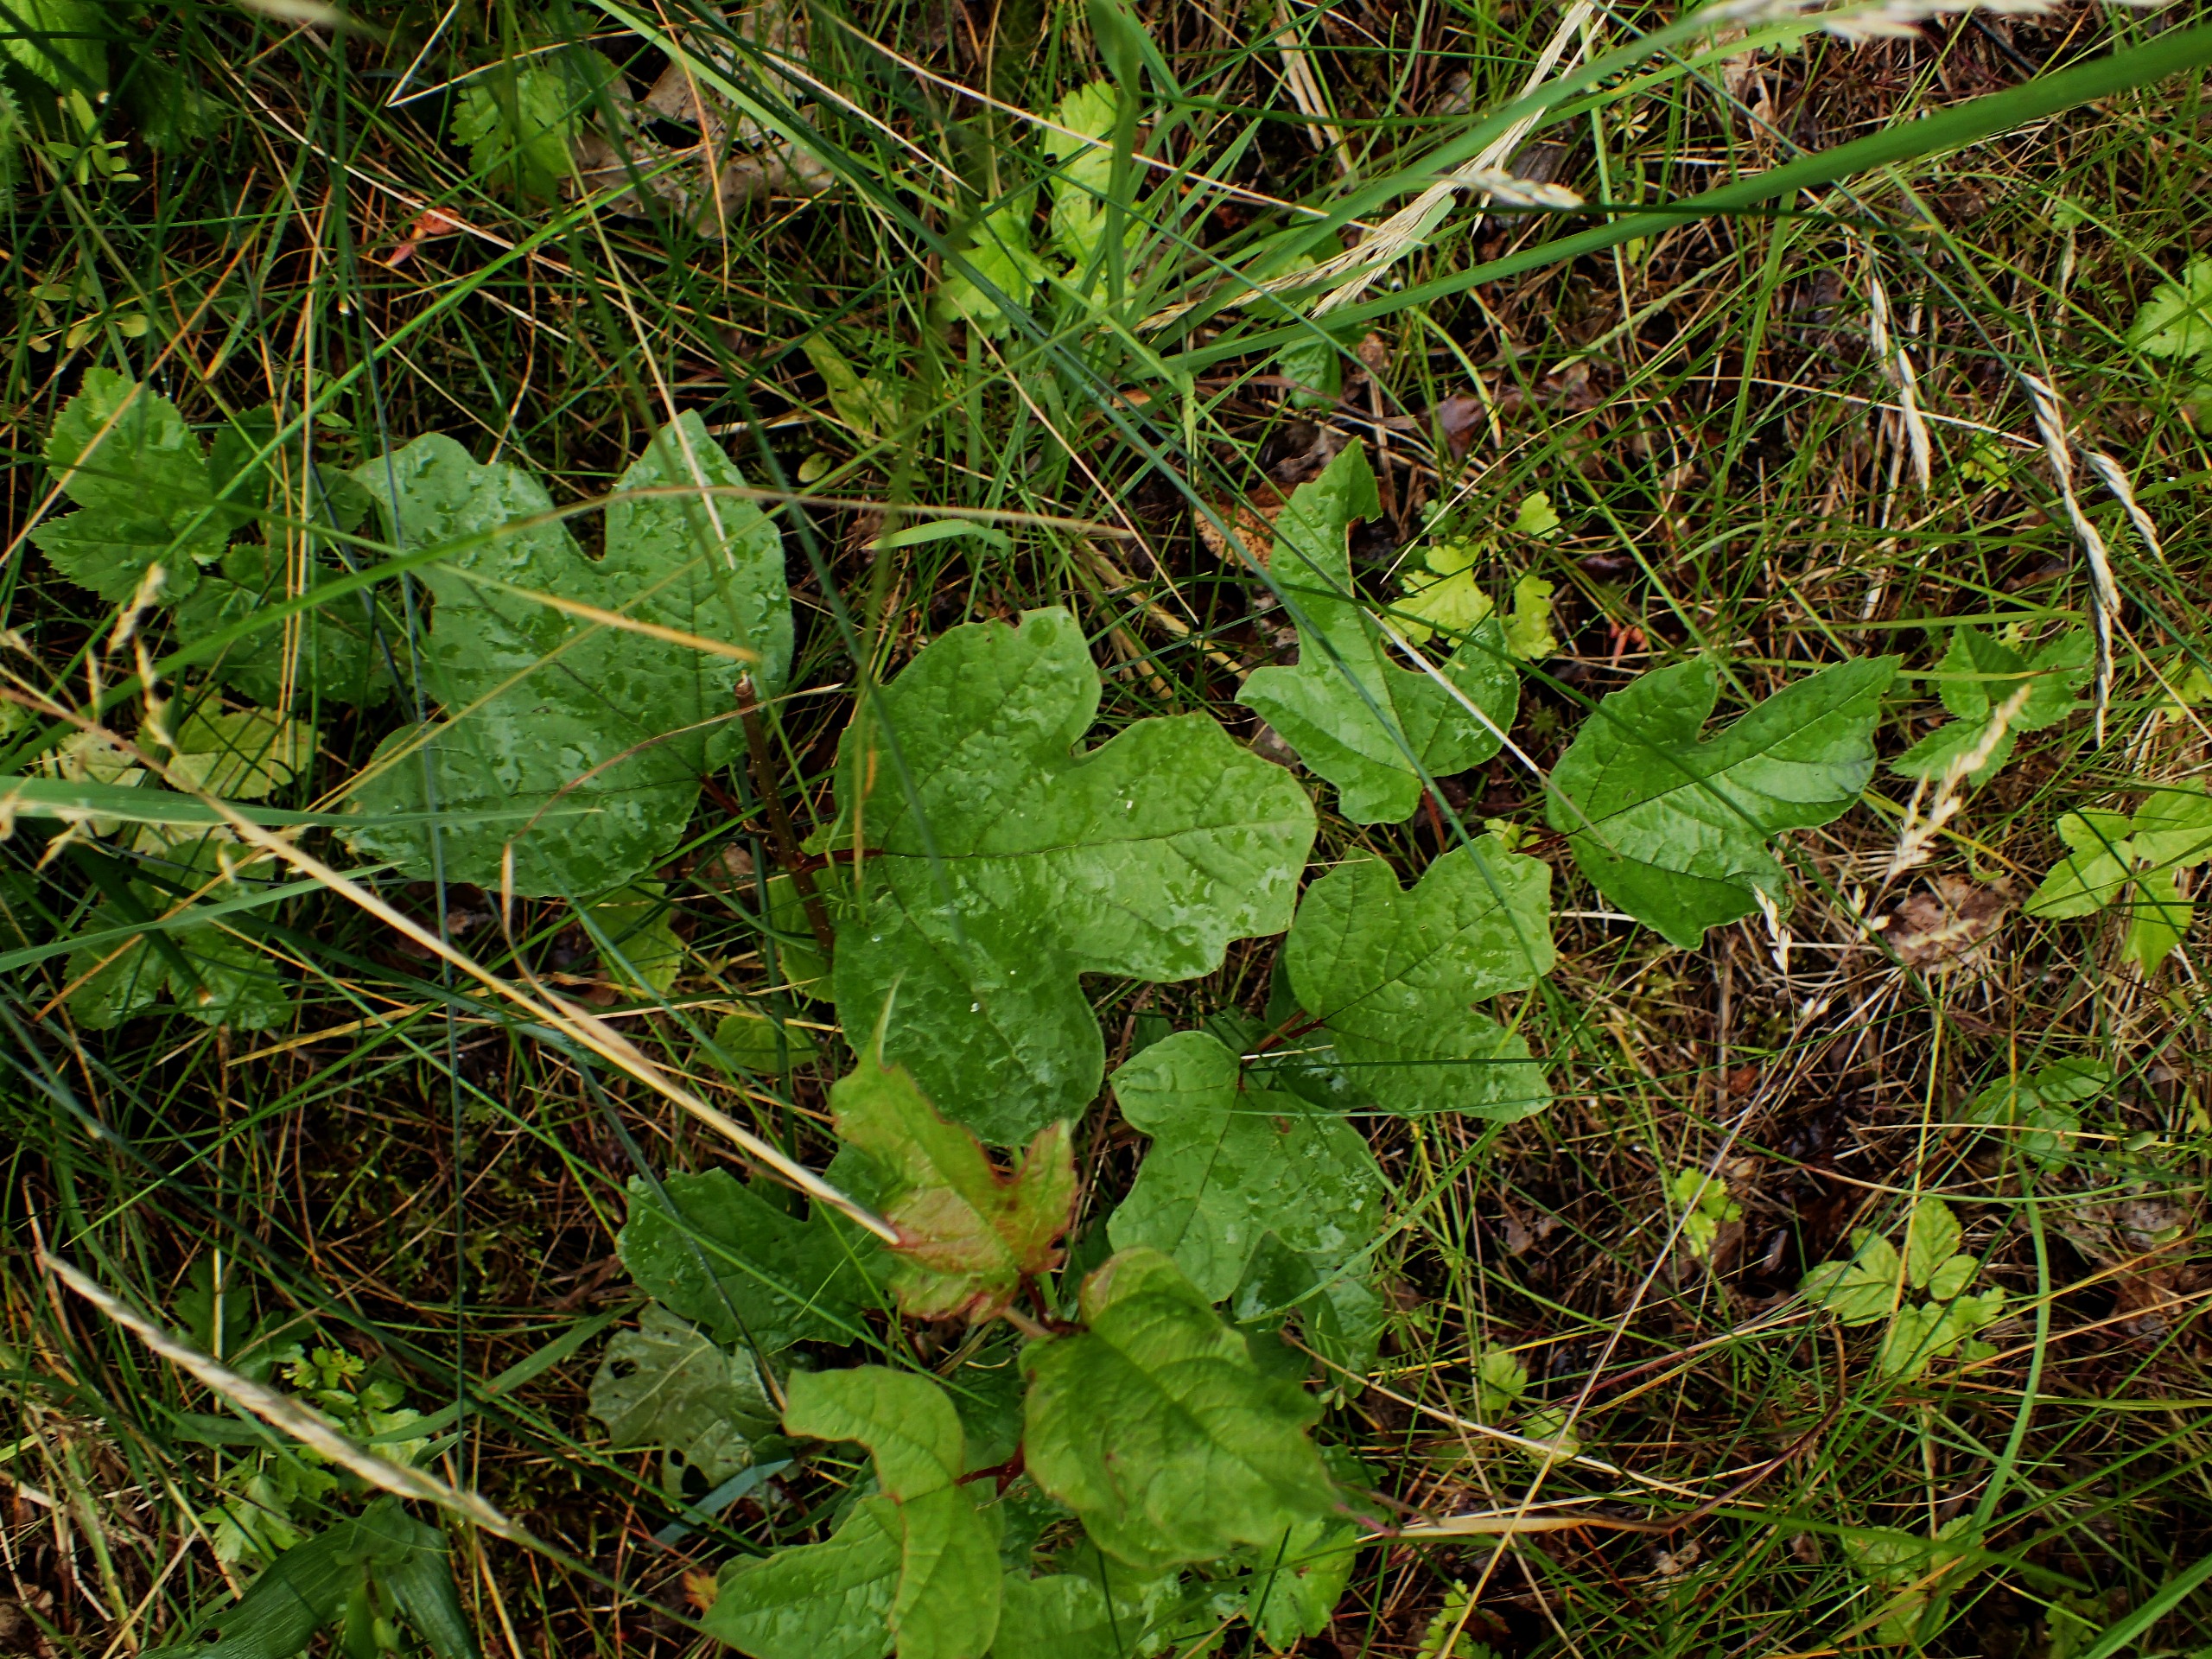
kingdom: Plantae
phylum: Tracheophyta
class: Magnoliopsida
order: Dipsacales
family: Viburnaceae
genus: Viburnum
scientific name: Viburnum opulus
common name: Kvalkved
